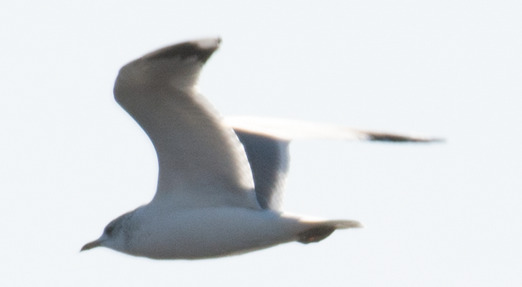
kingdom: Animalia
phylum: Chordata
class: Aves
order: Charadriiformes
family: Laridae
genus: Larus
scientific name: Larus canus
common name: Stormmåge
